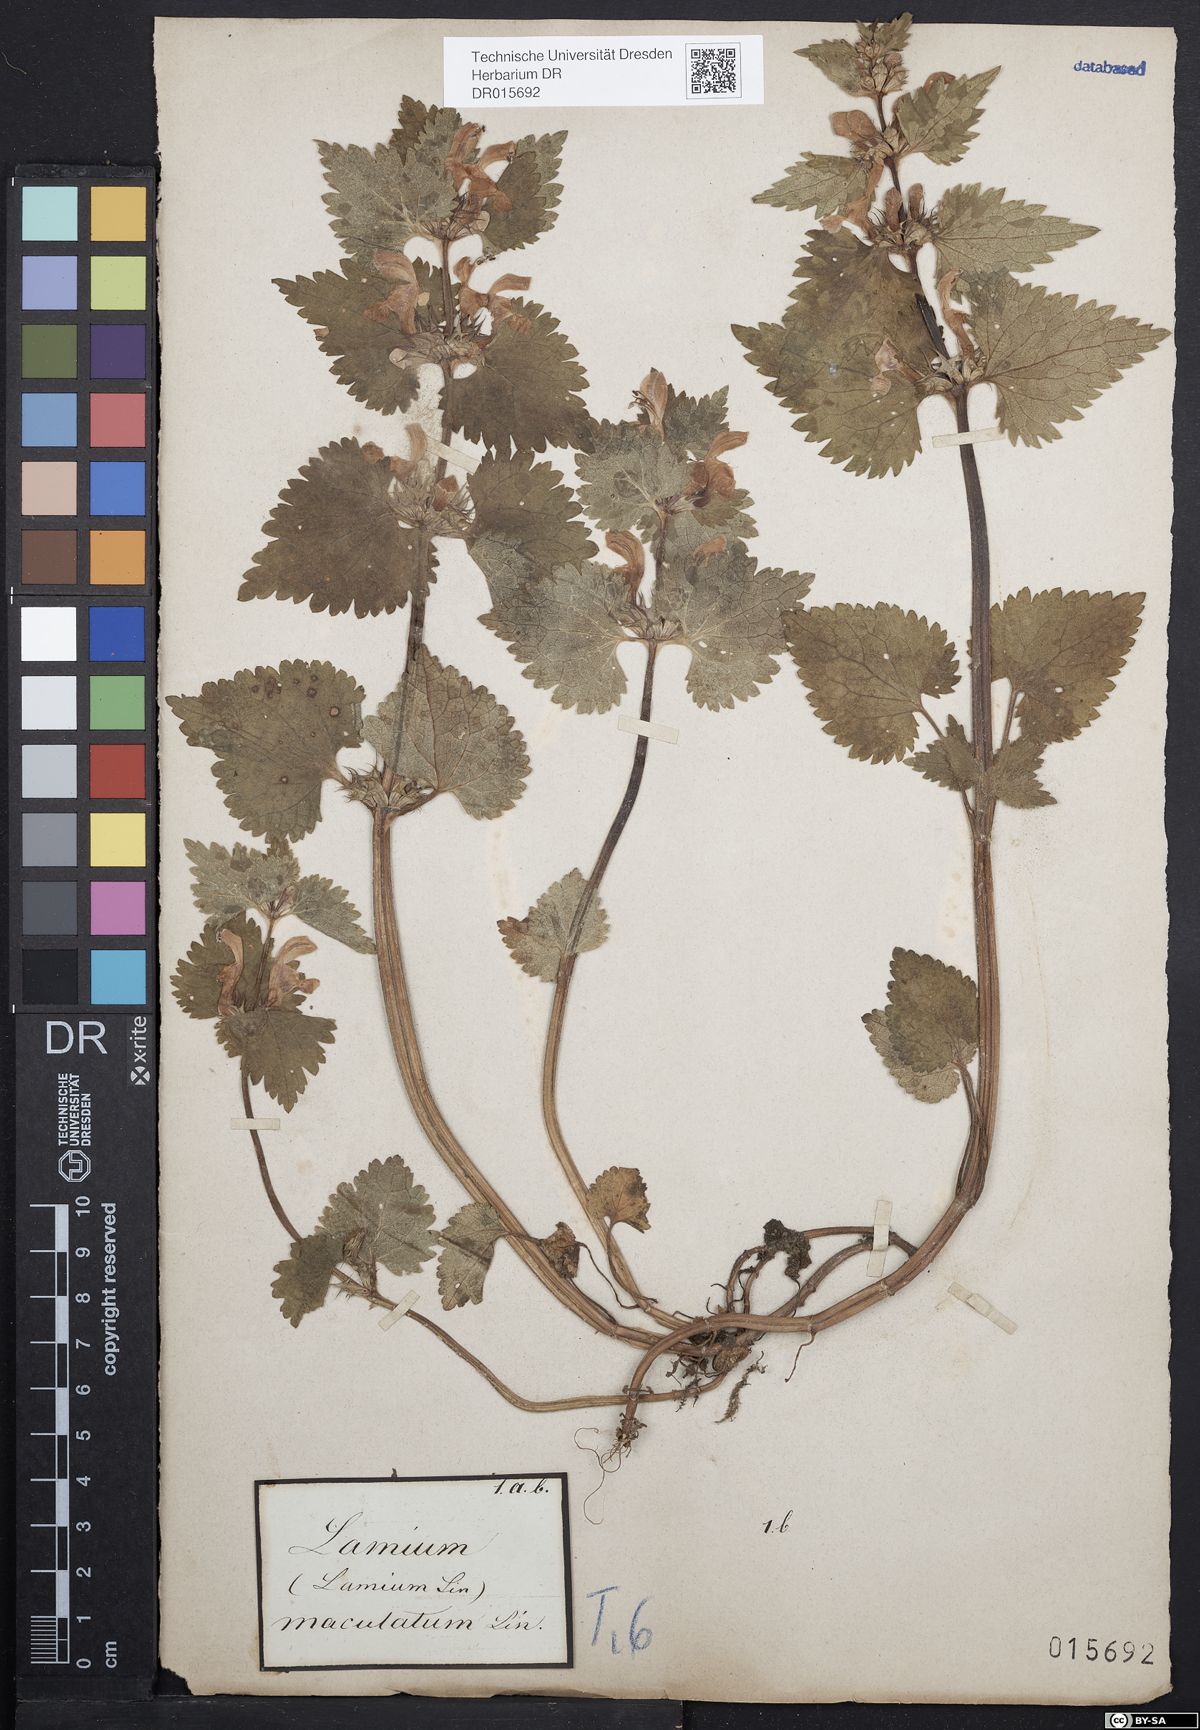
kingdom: Plantae
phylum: Tracheophyta
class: Magnoliopsida
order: Lamiales
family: Lamiaceae
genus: Lamium
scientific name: Lamium maculatum
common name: Spotted dead-nettle
